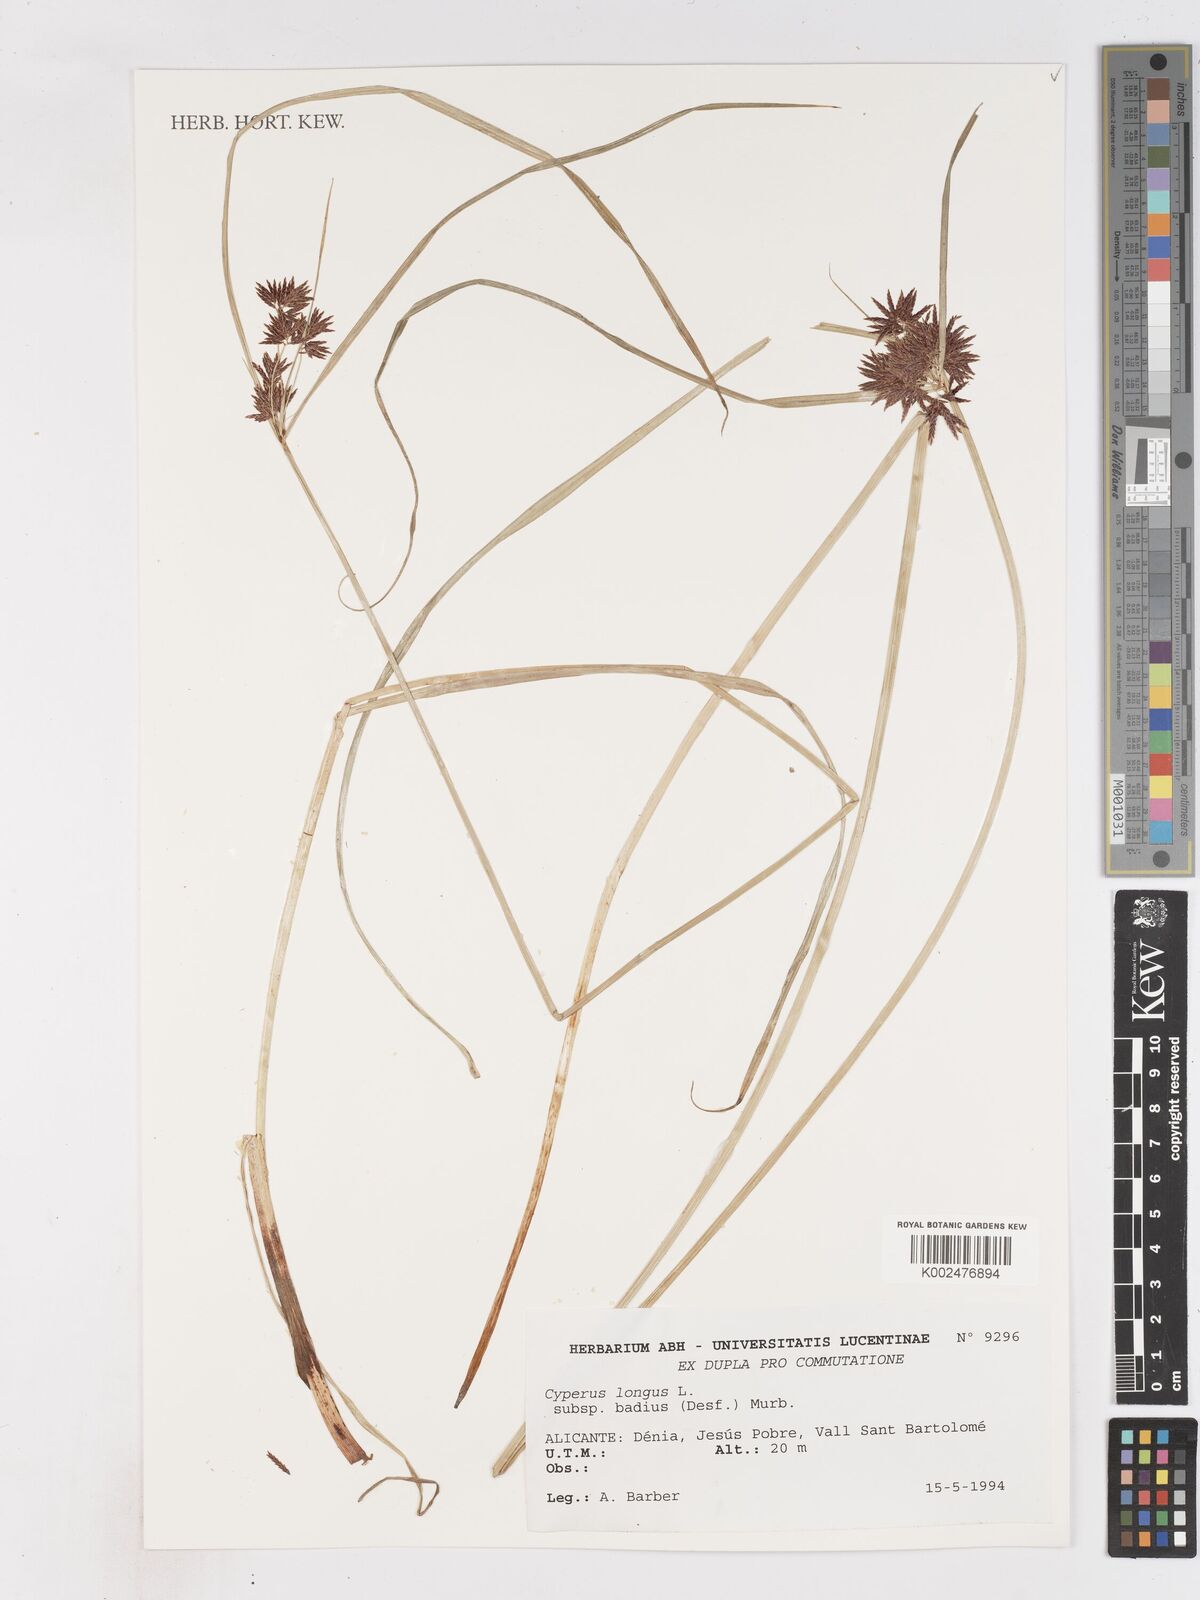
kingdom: Plantae
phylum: Tracheophyta
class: Liliopsida
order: Poales
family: Cyperaceae
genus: Cyperus
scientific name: Cyperus longus
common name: Galingale
